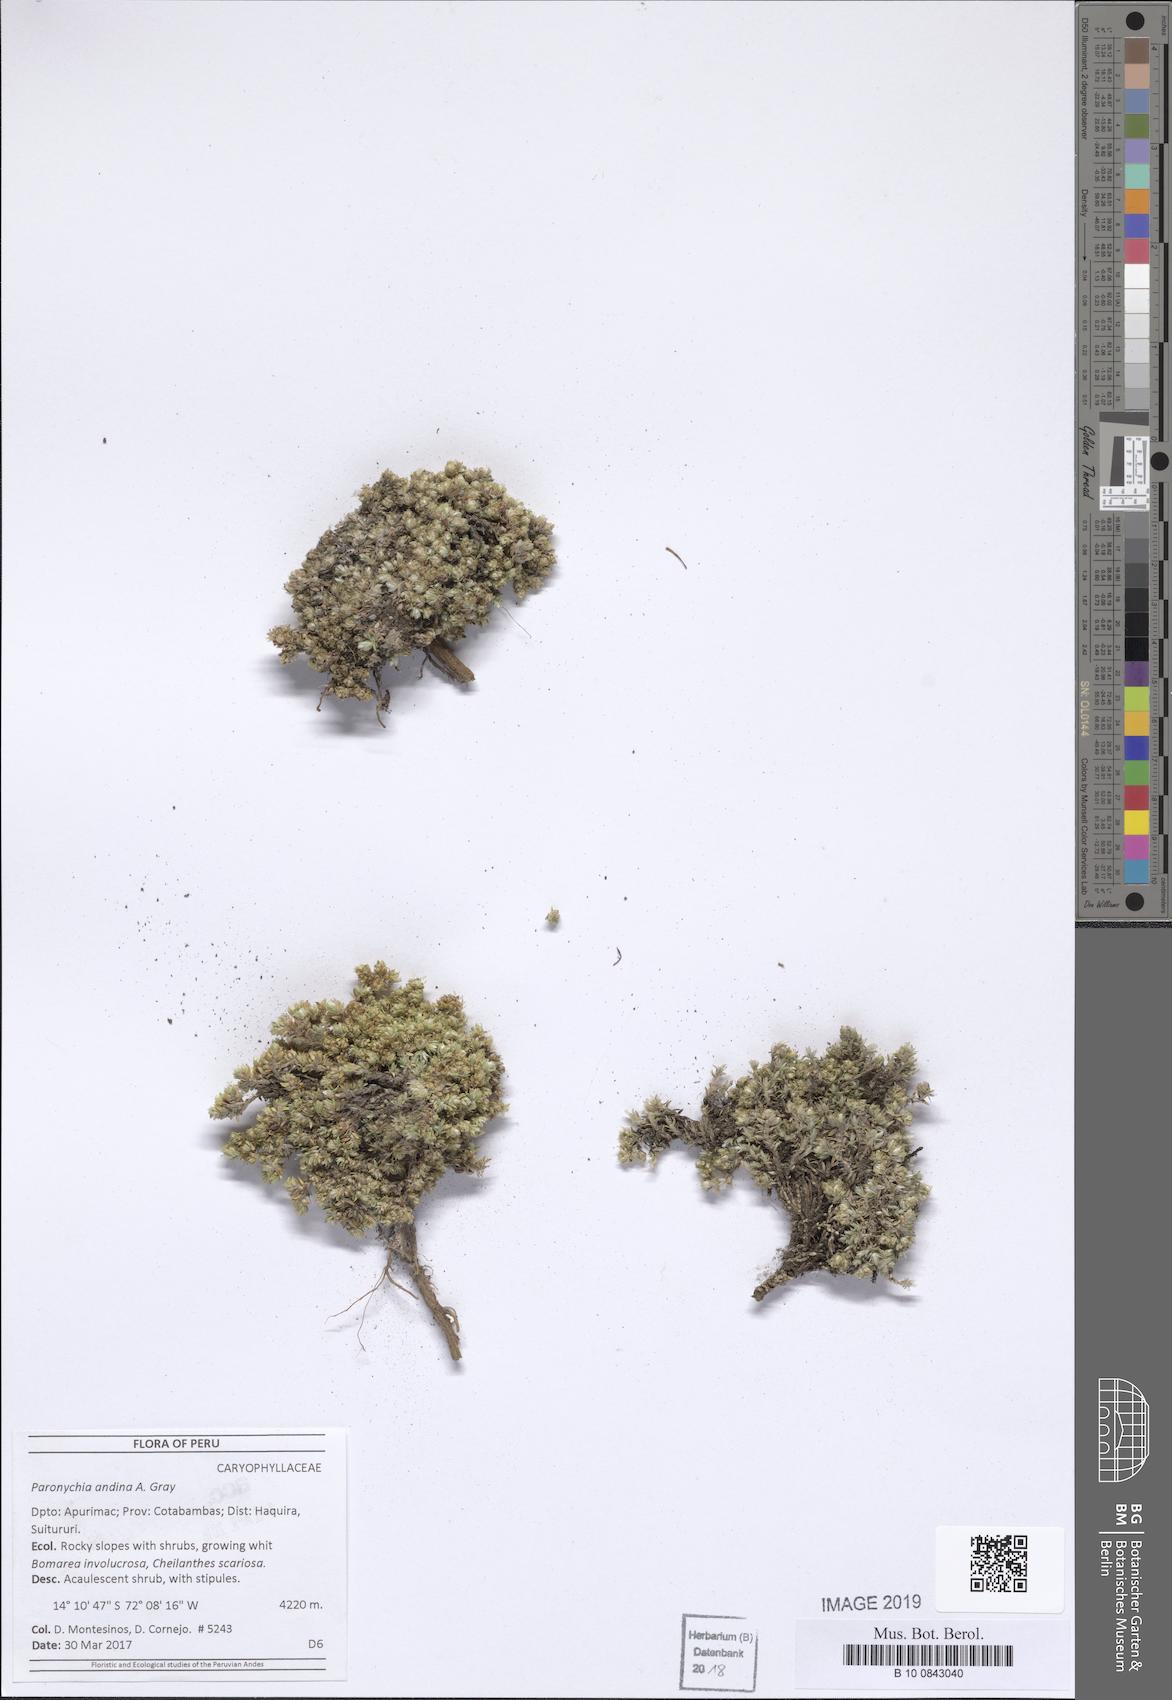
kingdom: Plantae
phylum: Tracheophyta
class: Magnoliopsida
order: Caryophyllales
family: Caryophyllaceae
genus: Paronychia
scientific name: Paronychia
